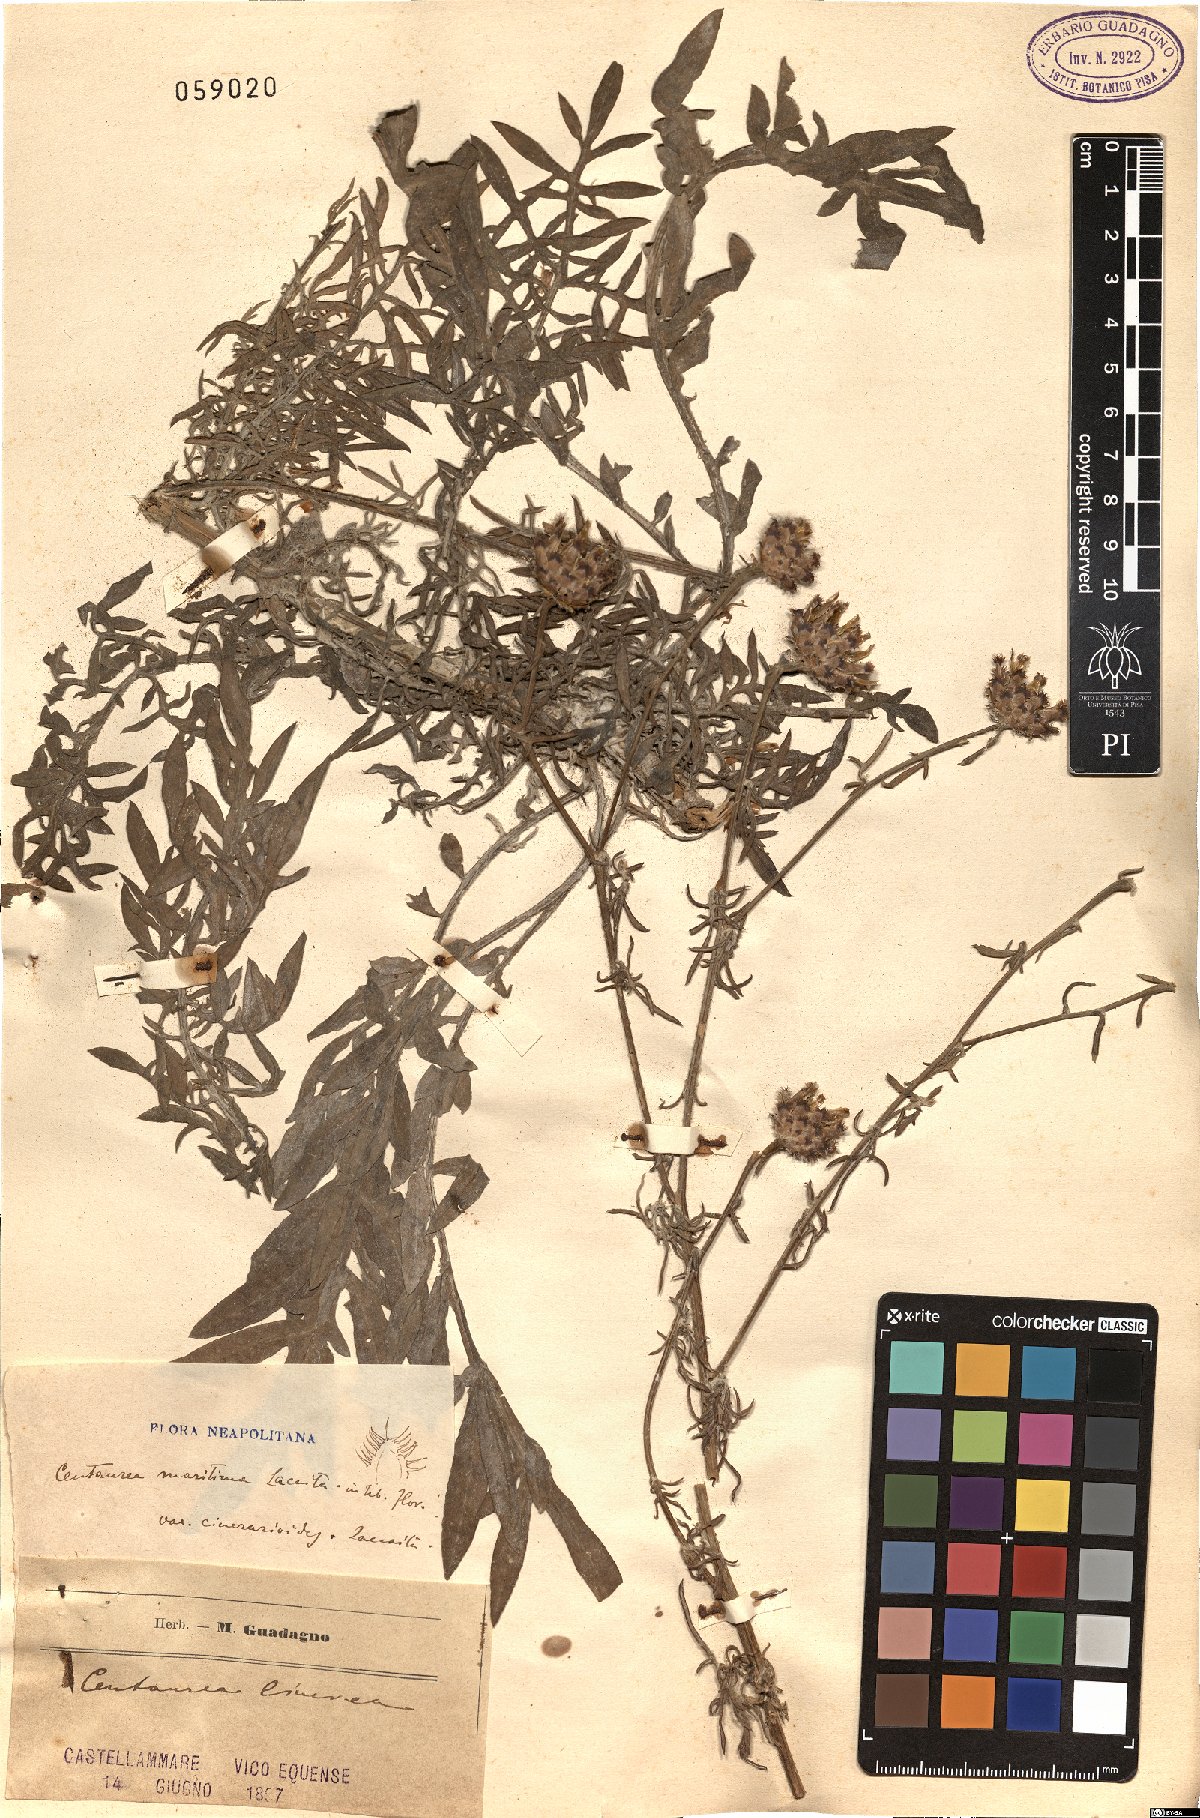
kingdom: Plantae
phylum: Tracheophyta
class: Magnoliopsida
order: Asterales
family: Asteraceae
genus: Centaurea
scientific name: Centaurea cineraria
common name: Dusty miller
